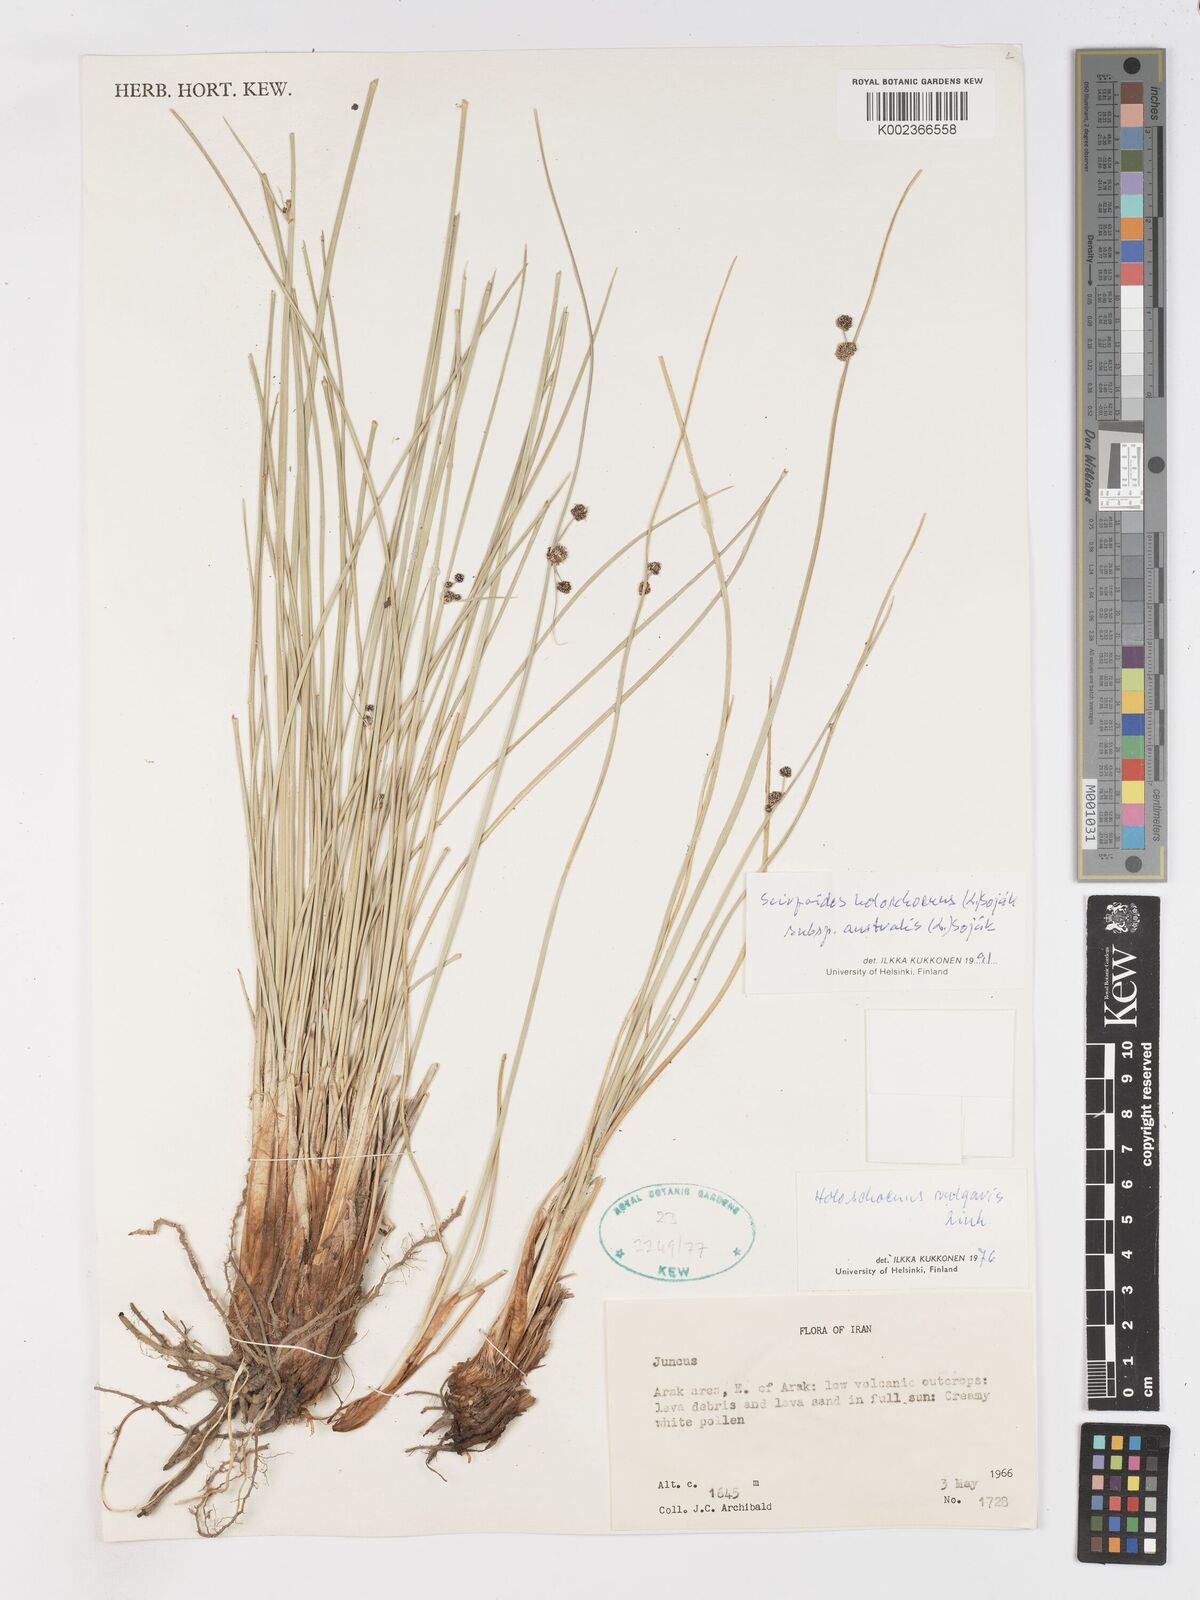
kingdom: Plantae
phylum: Tracheophyta
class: Liliopsida
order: Poales
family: Cyperaceae
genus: Scirpoides
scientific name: Scirpoides holoschoenus
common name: Round-headed club-rush
